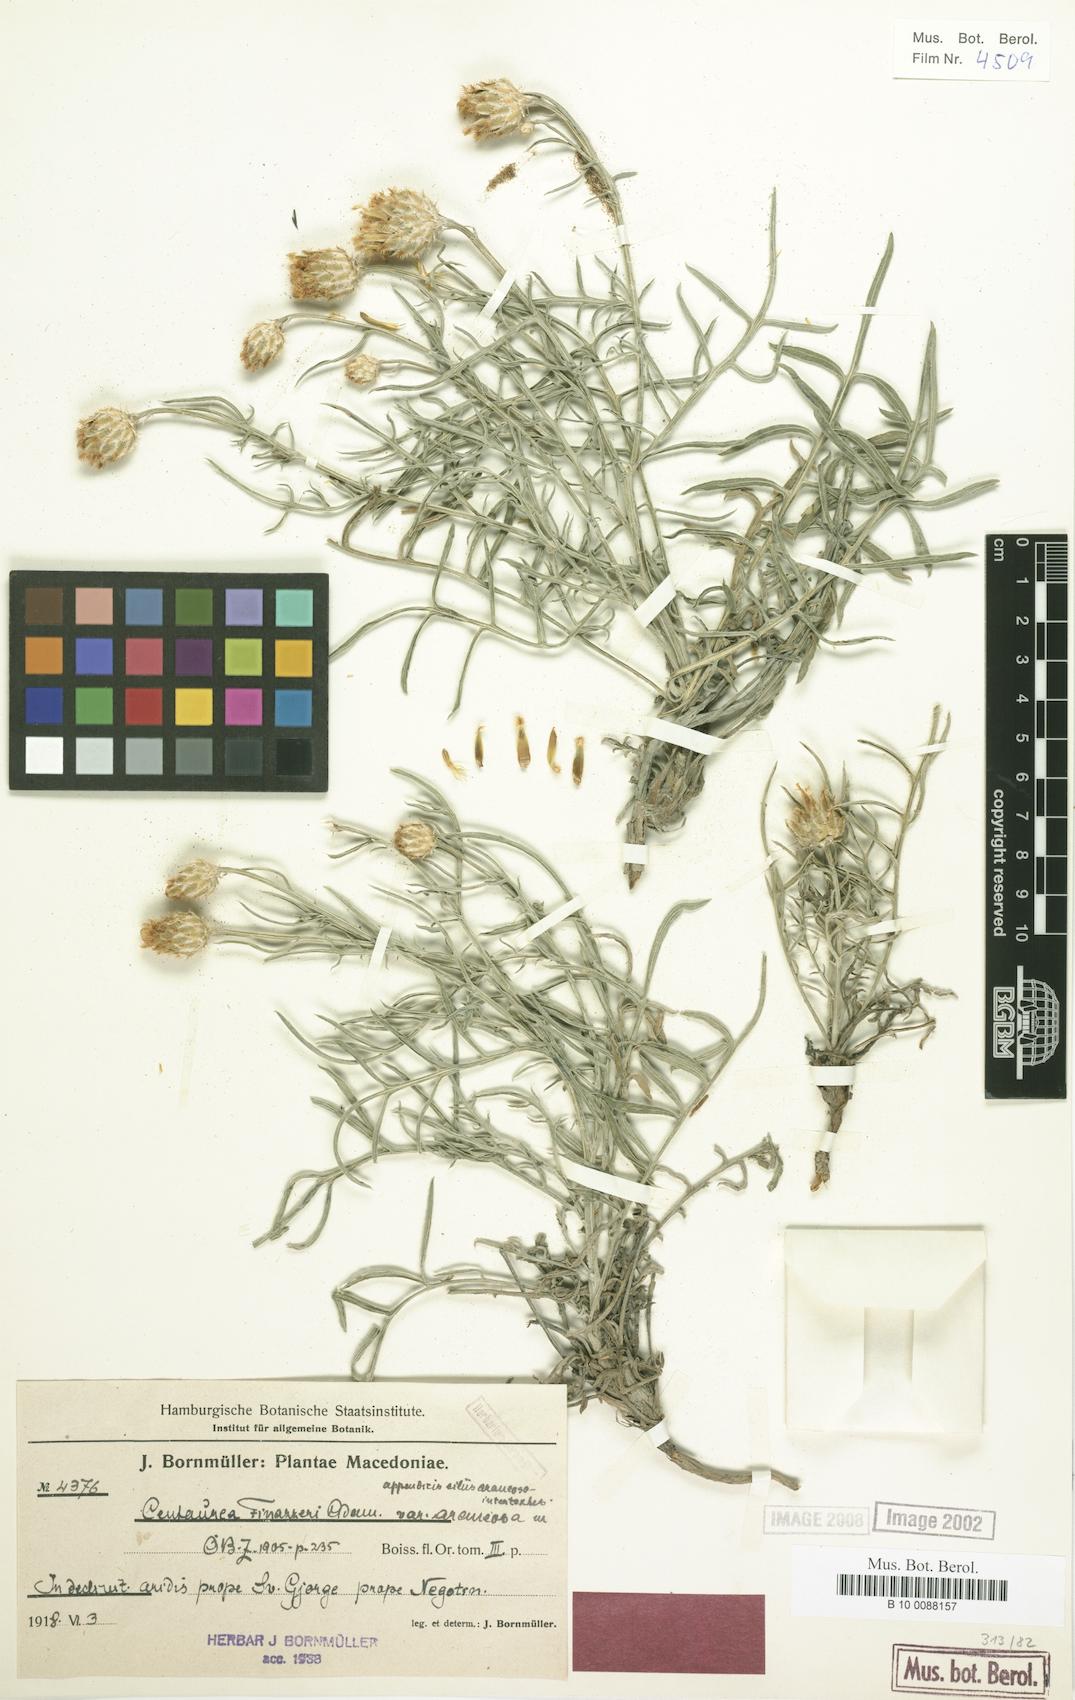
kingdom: Plantae
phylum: Tracheophyta
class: Magnoliopsida
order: Asterales
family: Asteraceae
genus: Centaurea
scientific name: Centaurea finazzeri
